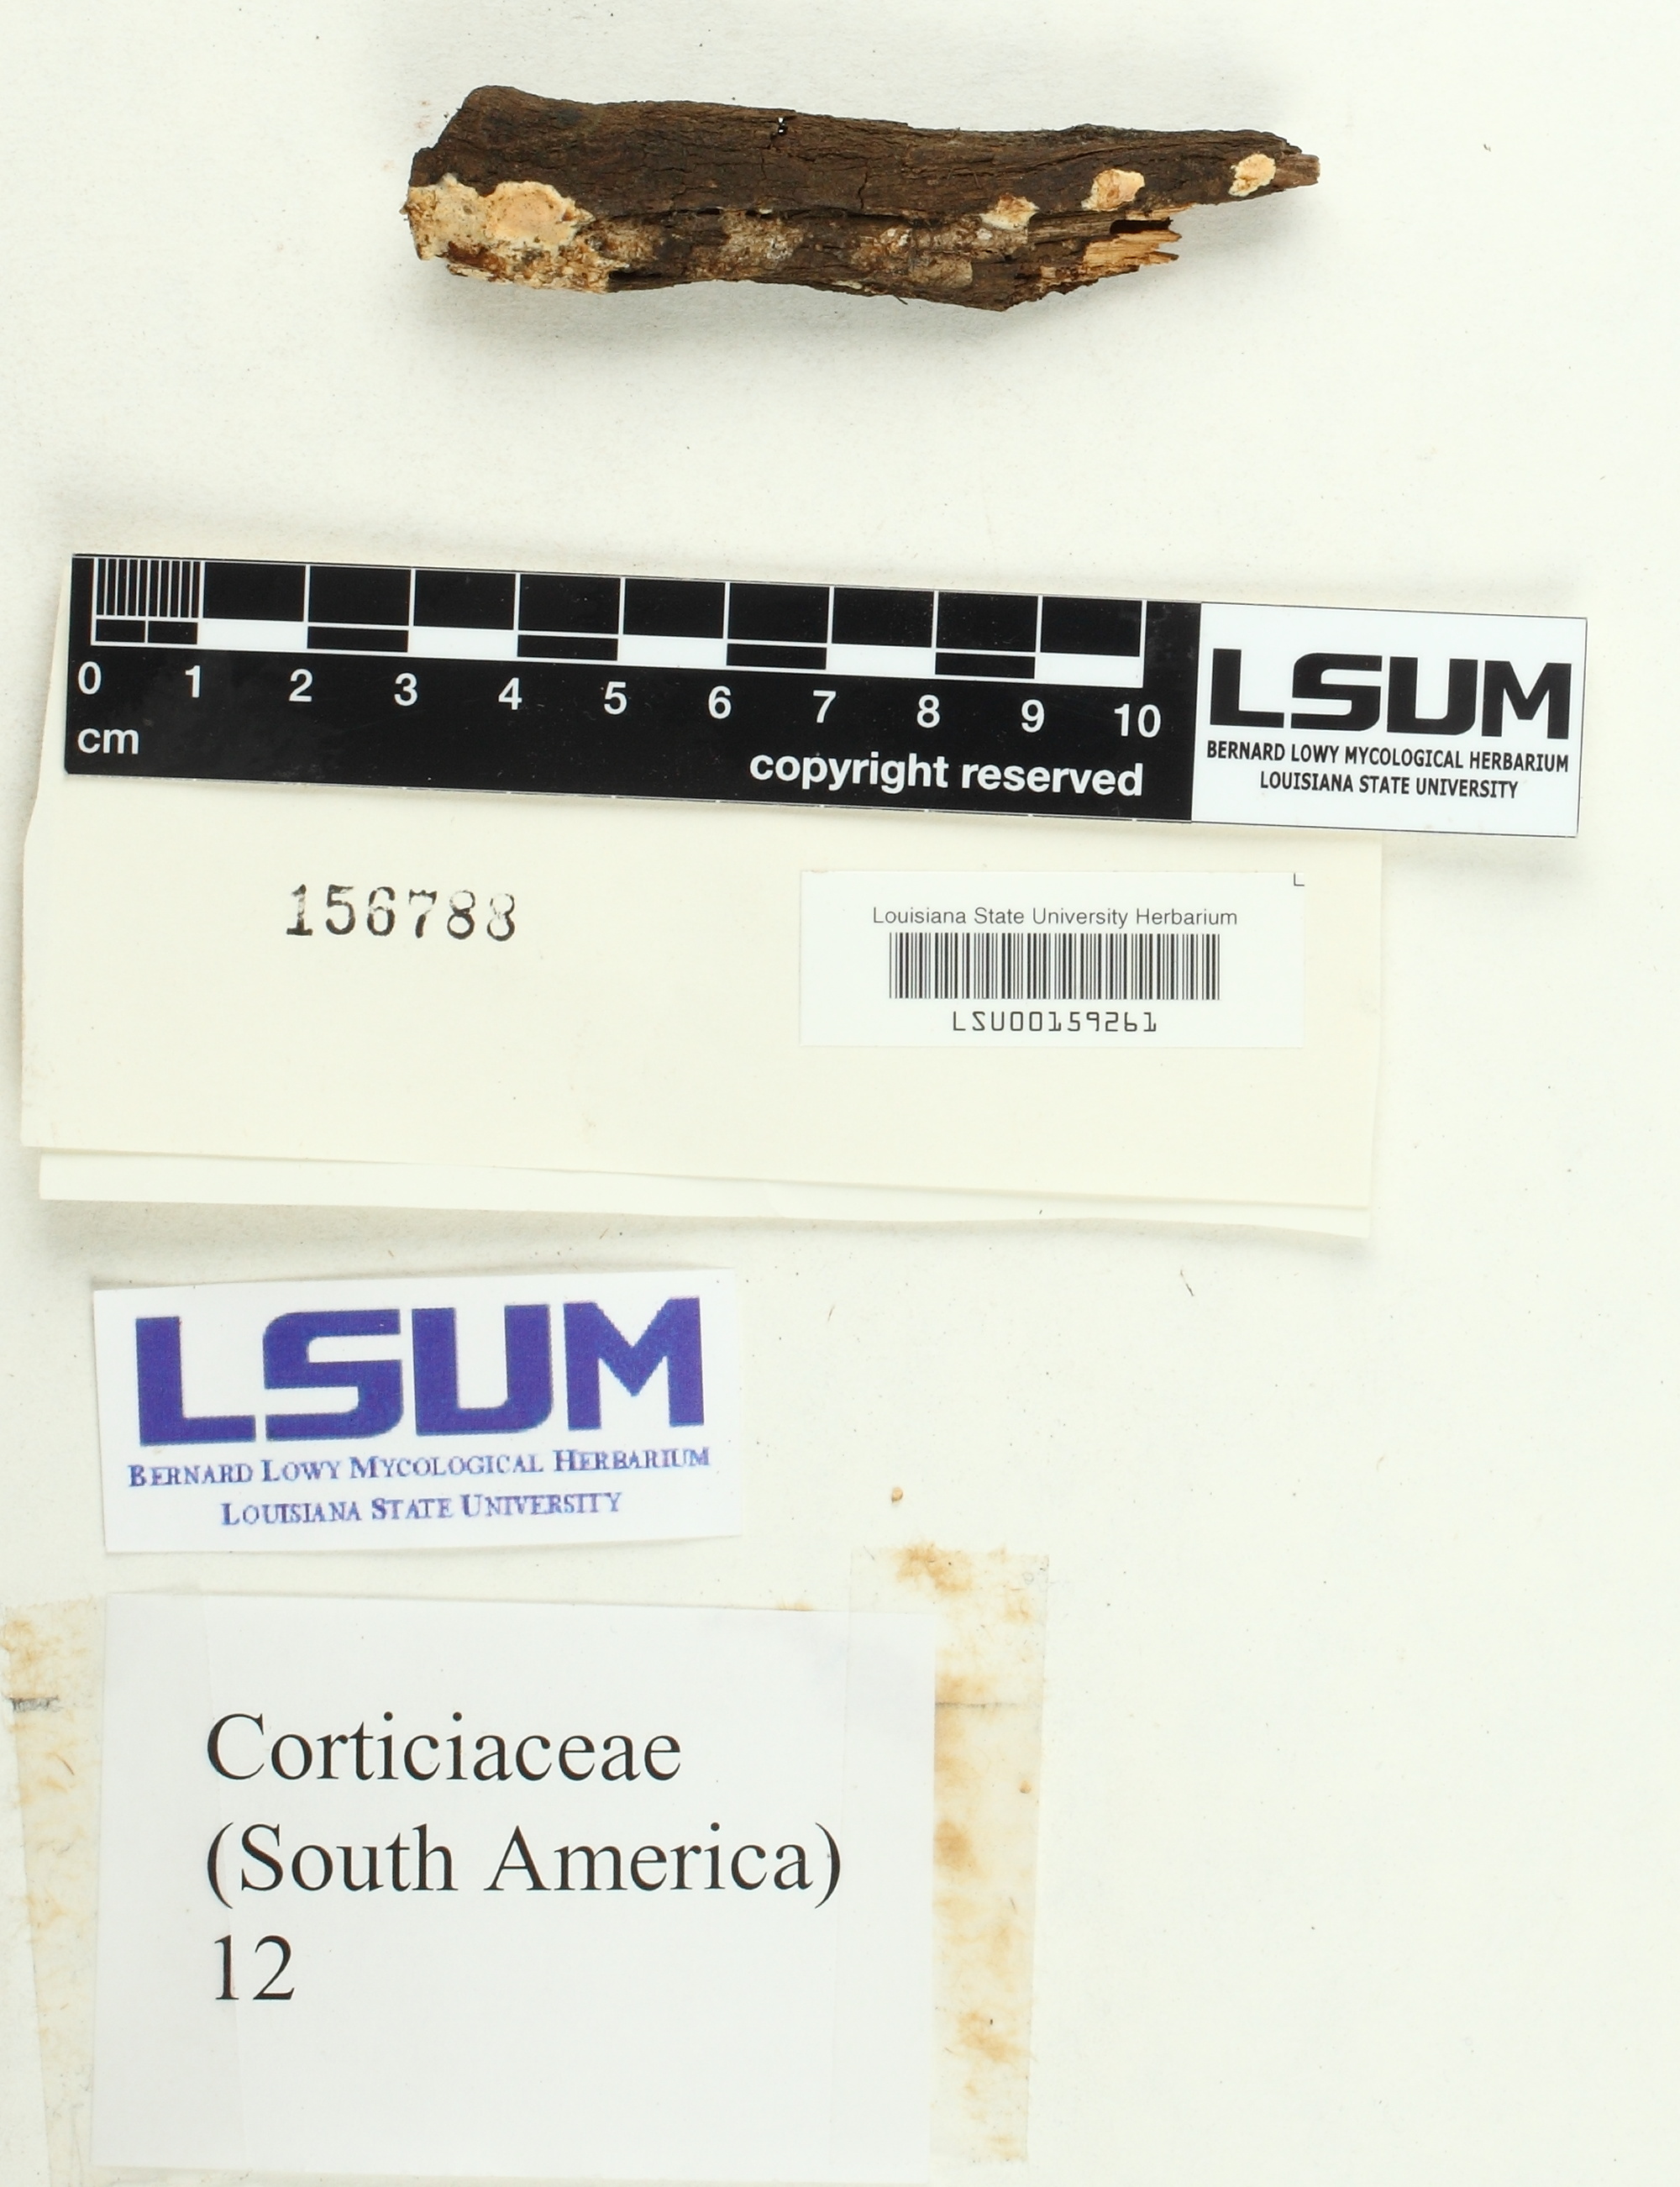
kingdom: Fungi
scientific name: Fungi
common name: Fungi
